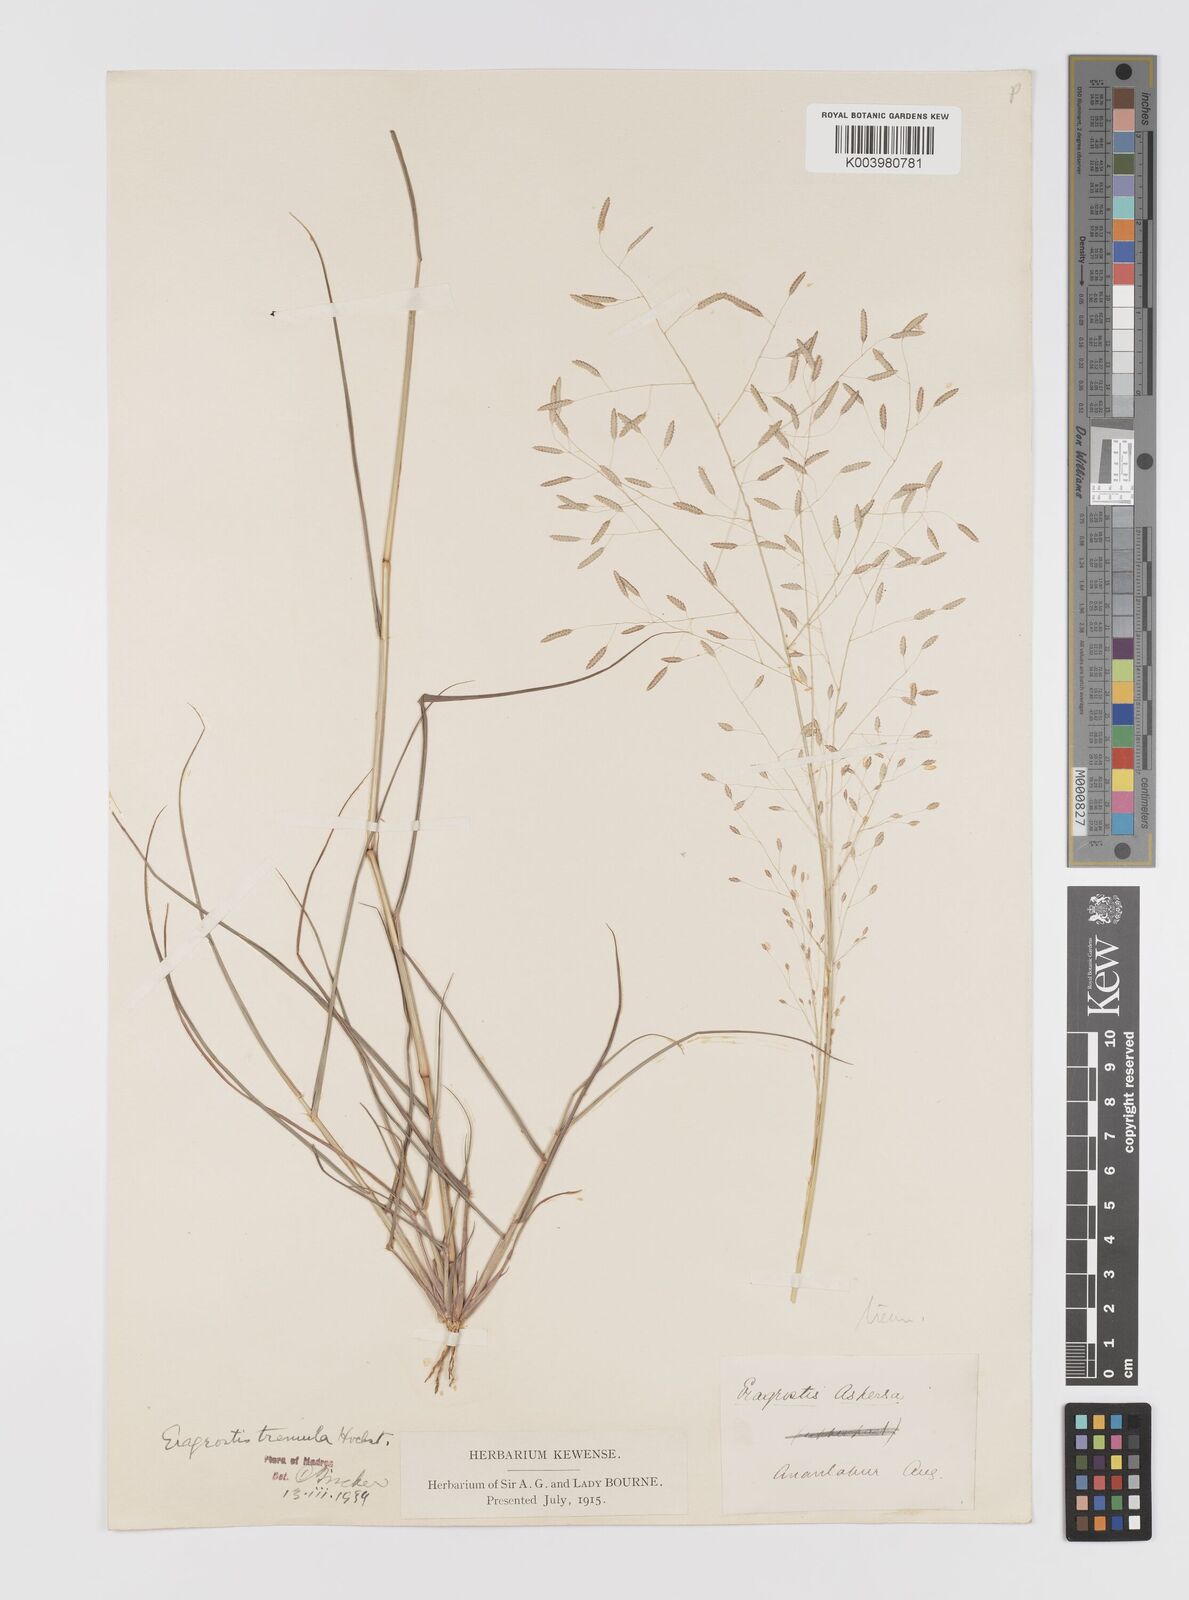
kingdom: Plantae
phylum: Tracheophyta
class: Liliopsida
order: Poales
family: Poaceae
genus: Eragrostis
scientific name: Eragrostis tremula
